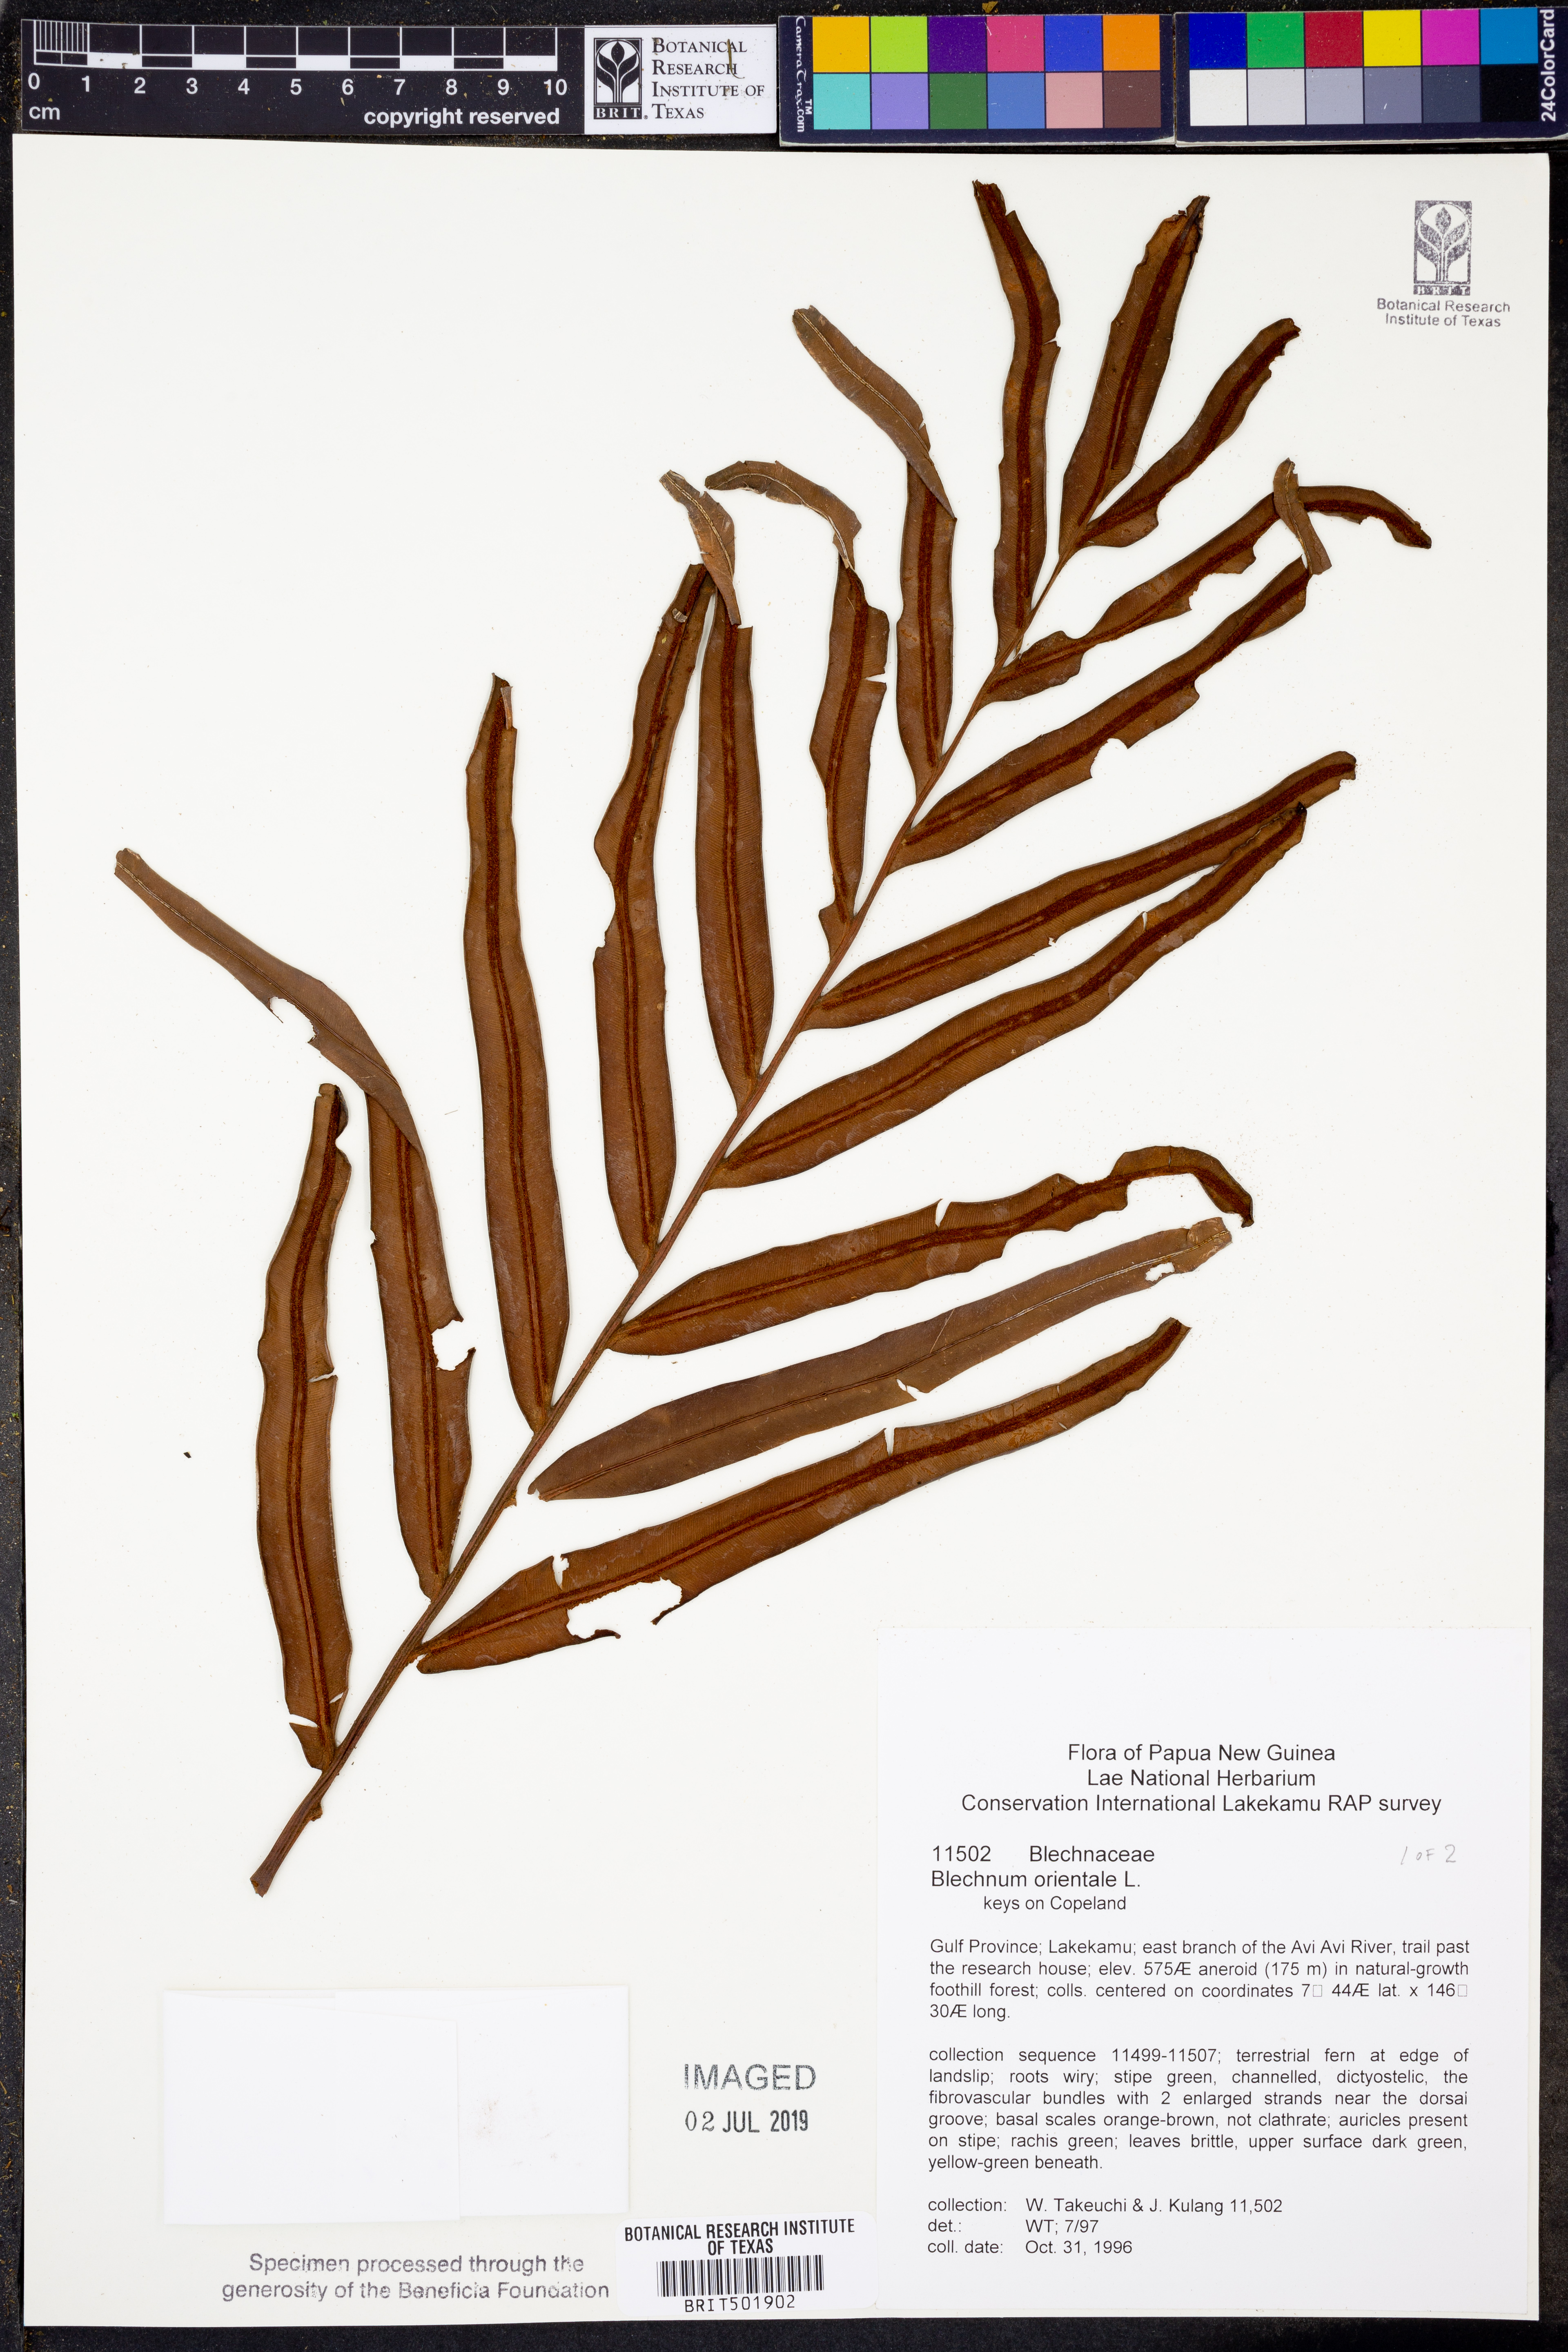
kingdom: Plantae
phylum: Tracheophyta
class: Polypodiopsida
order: Polypodiales
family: Blechnaceae
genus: Blechnopsis
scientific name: Blechnopsis orientalis
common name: Oriental blechnum
